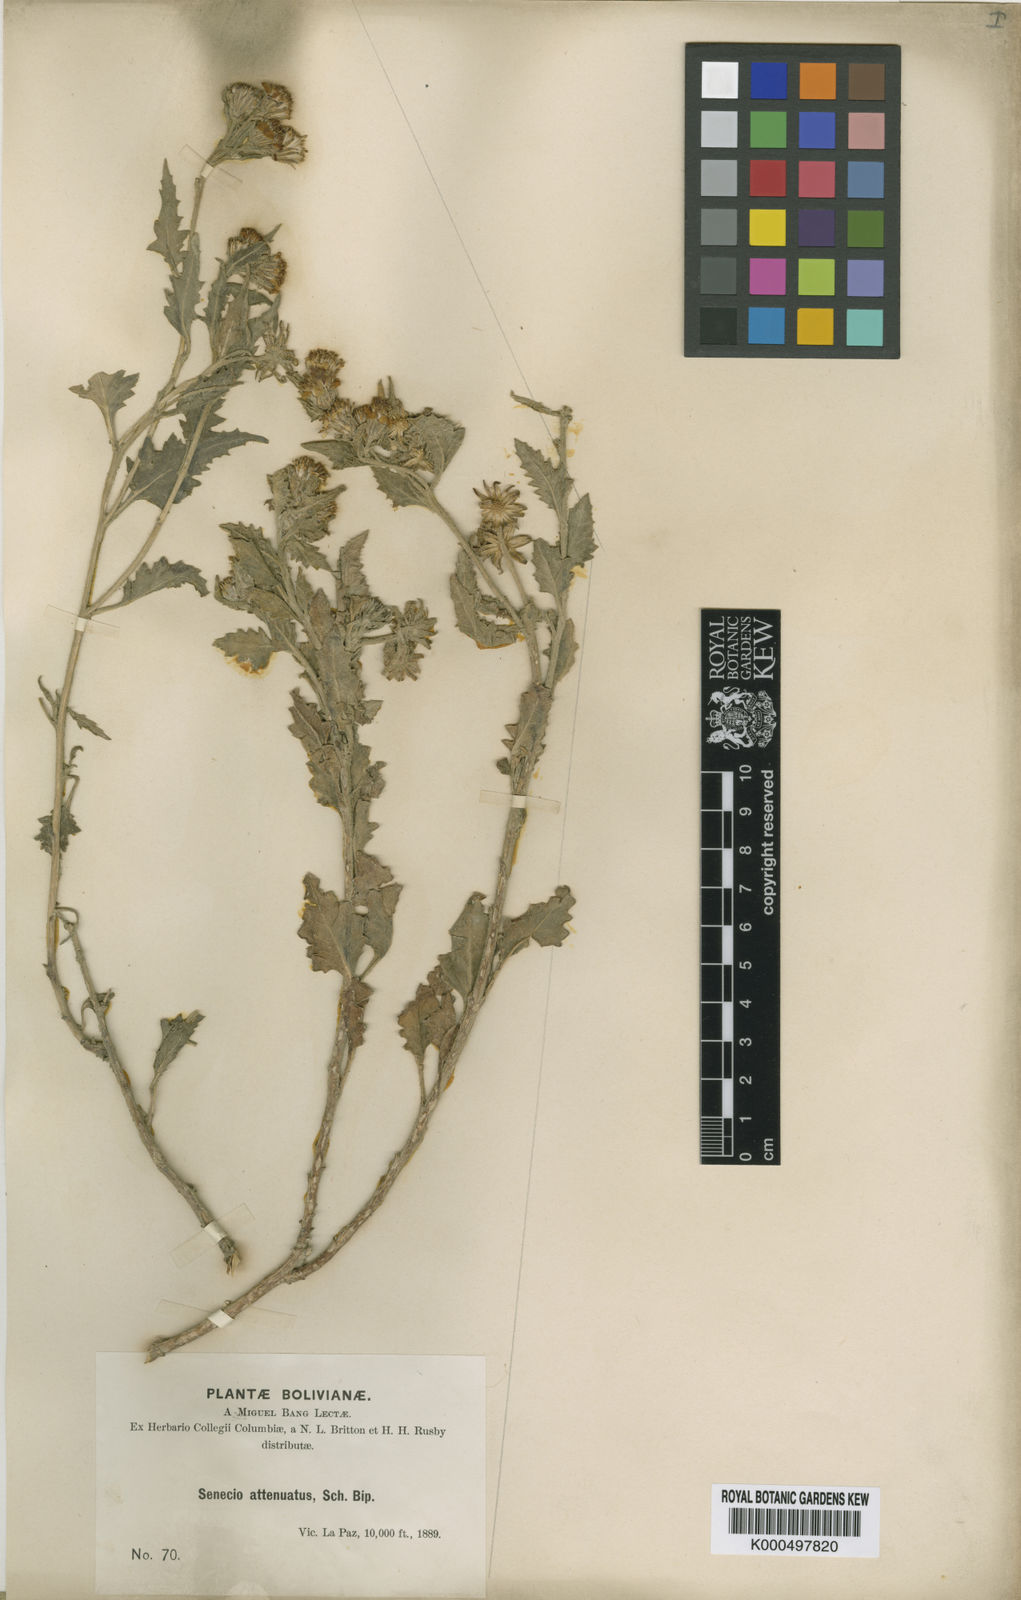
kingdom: Plantae
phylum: Tracheophyta
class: Magnoliopsida
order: Asterales
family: Asteraceae
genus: Senecio
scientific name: Senecio
